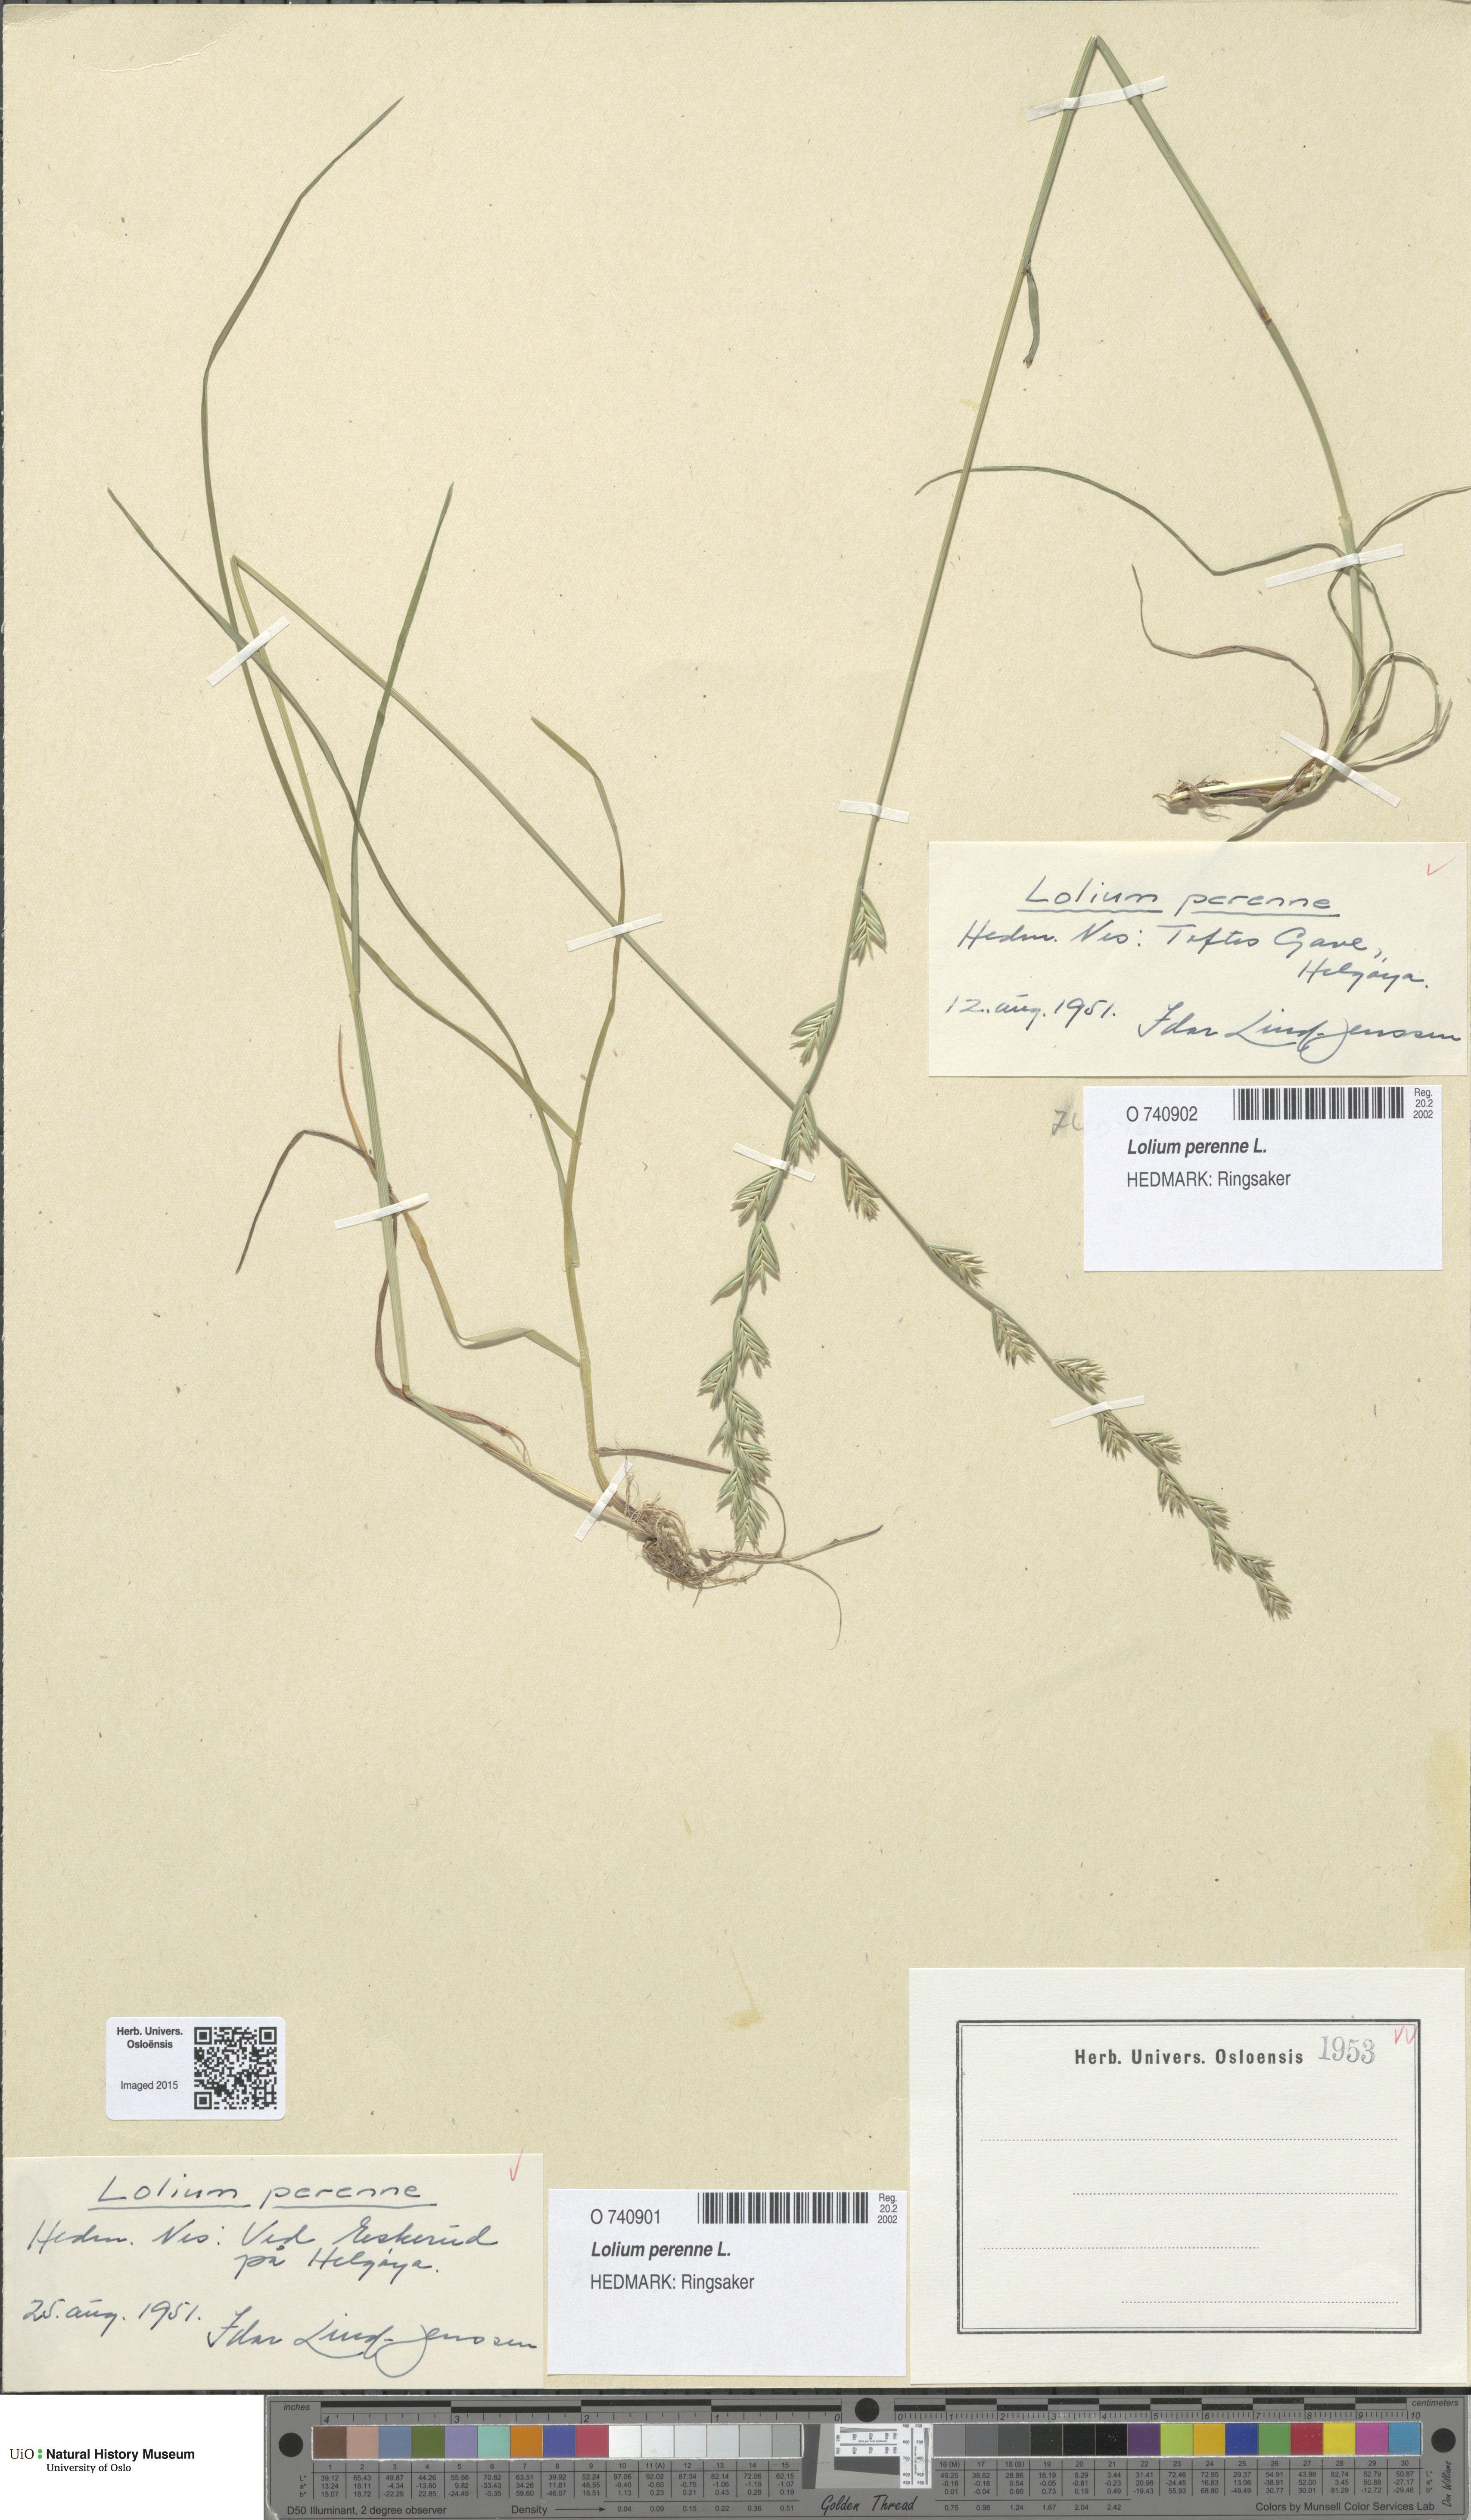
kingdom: Plantae
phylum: Tracheophyta
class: Liliopsida
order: Poales
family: Poaceae
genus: Lolium
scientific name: Lolium perenne
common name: Perennial ryegrass
